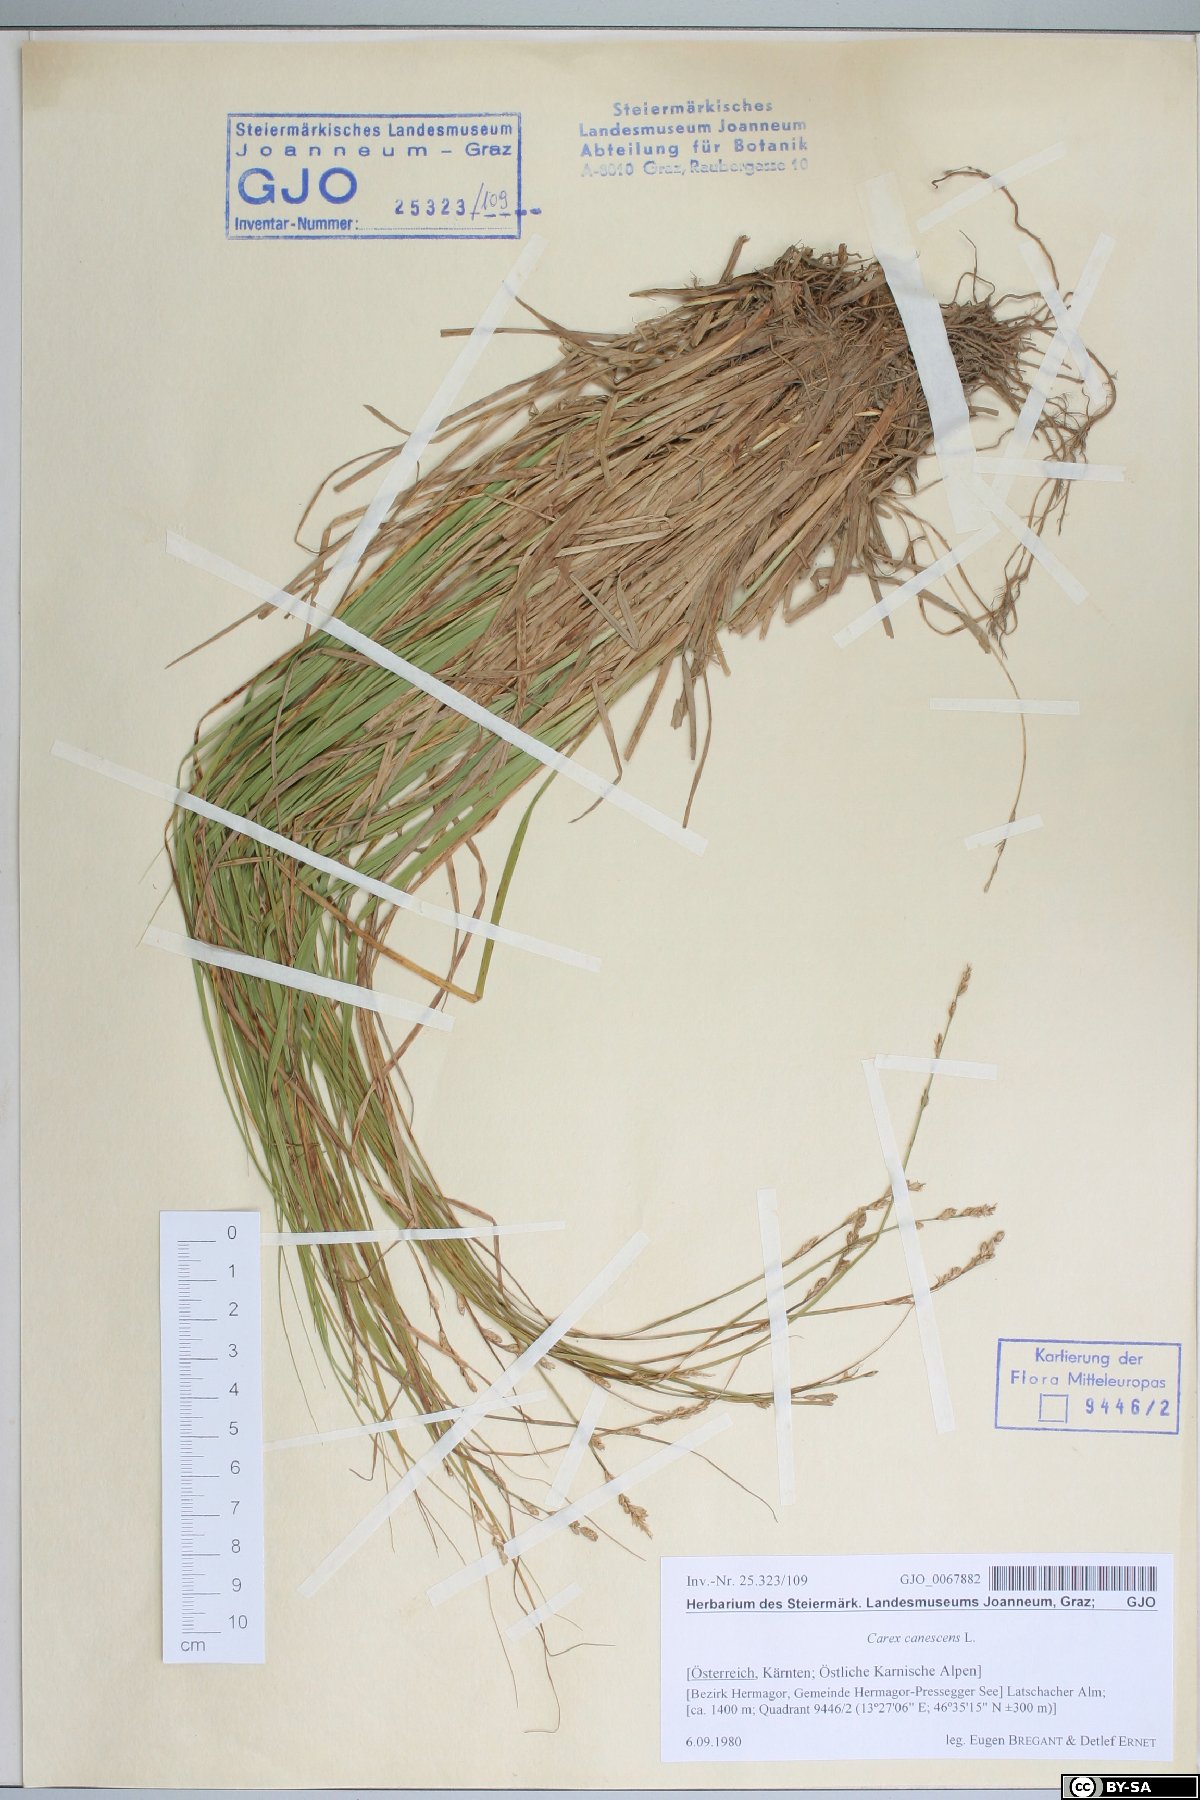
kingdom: Plantae
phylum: Tracheophyta
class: Liliopsida
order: Poales
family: Cyperaceae
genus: Carex
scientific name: Carex canescens
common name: White sedge
